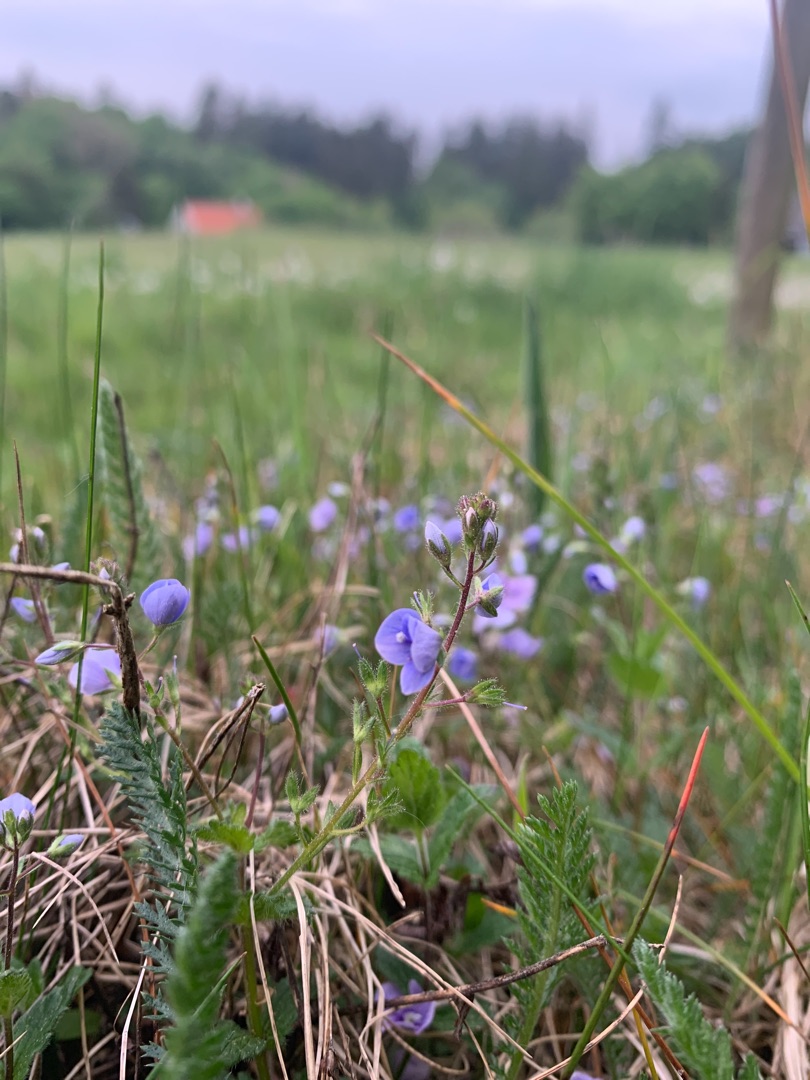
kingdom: Plantae
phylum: Tracheophyta
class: Magnoliopsida
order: Lamiales
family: Plantaginaceae
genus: Veronica
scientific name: Veronica chamaedrys
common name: Tveskægget ærenpris
